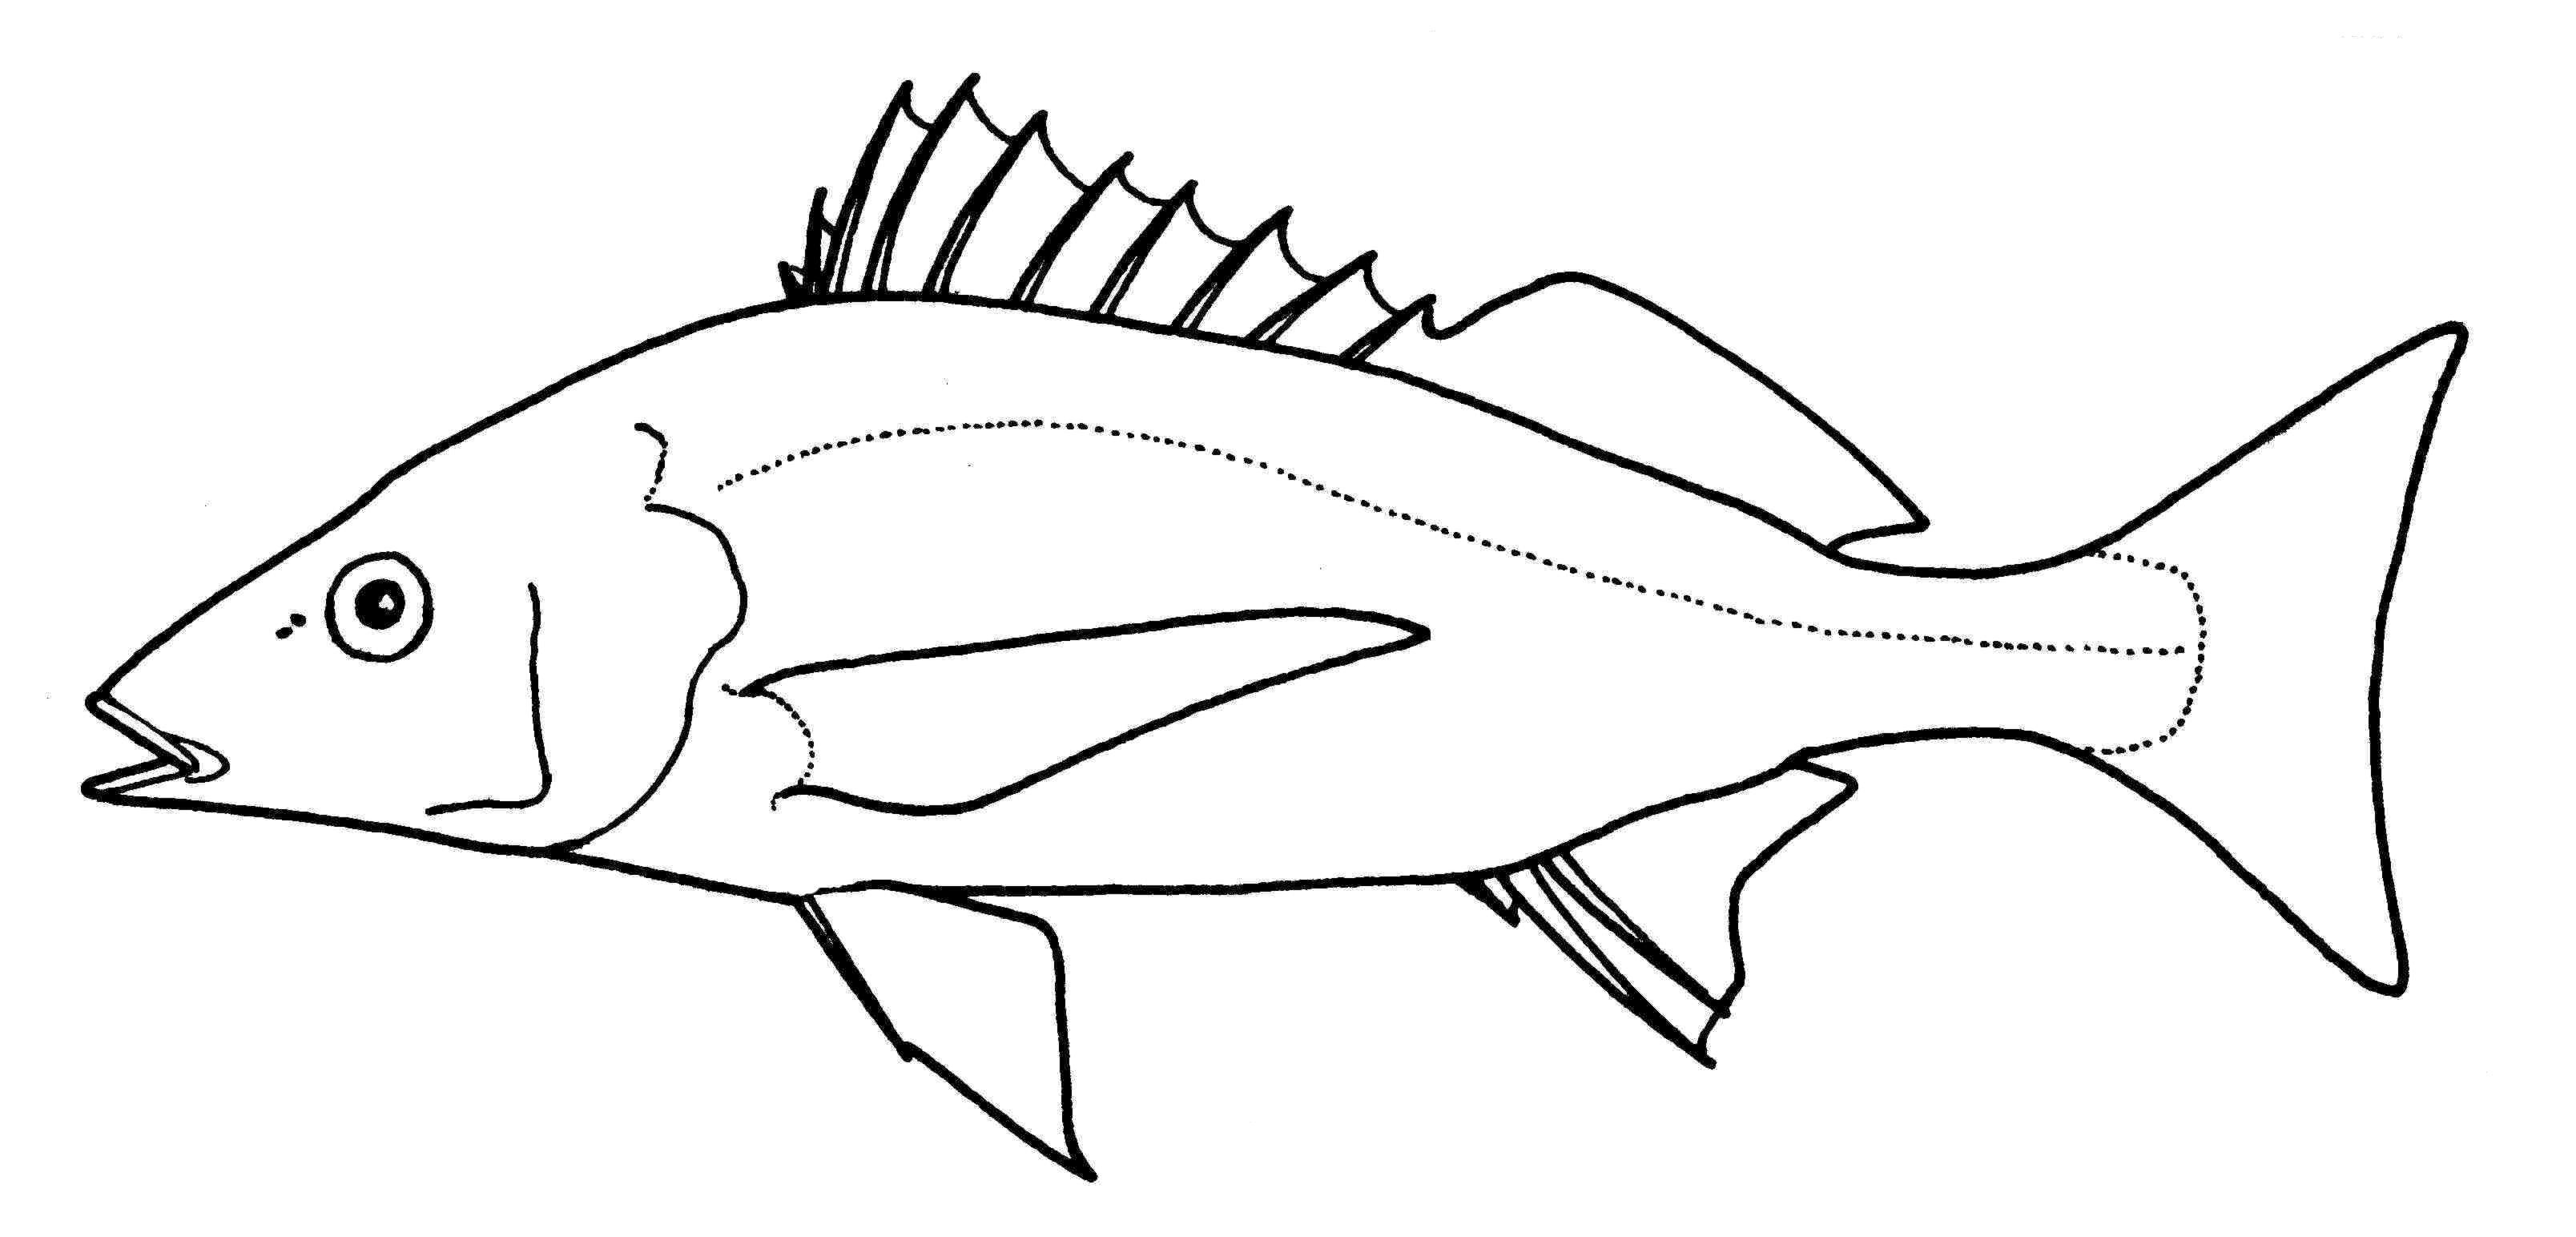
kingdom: Animalia
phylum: Chordata
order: Perciformes
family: Haemulidae
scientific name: Haemulidae
